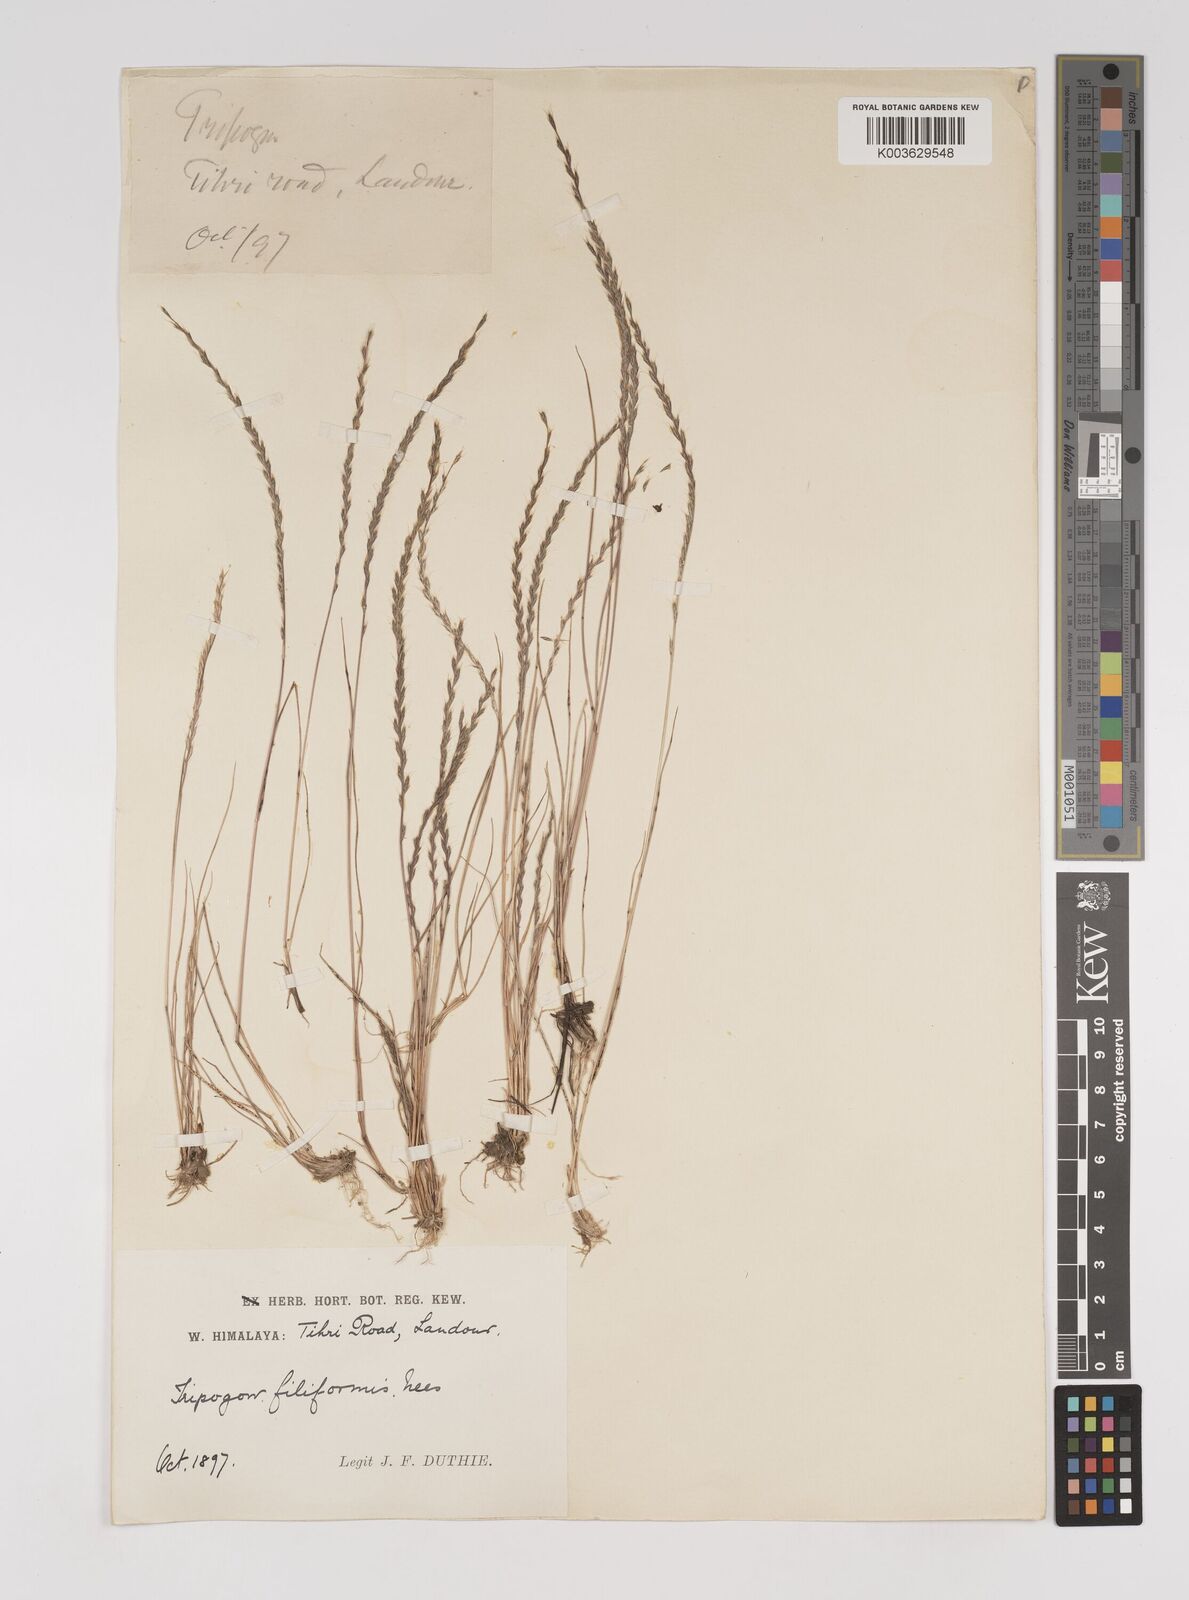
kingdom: Plantae
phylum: Tracheophyta
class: Liliopsida
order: Poales
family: Poaceae
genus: Tripogon
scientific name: Tripogon filiformis
